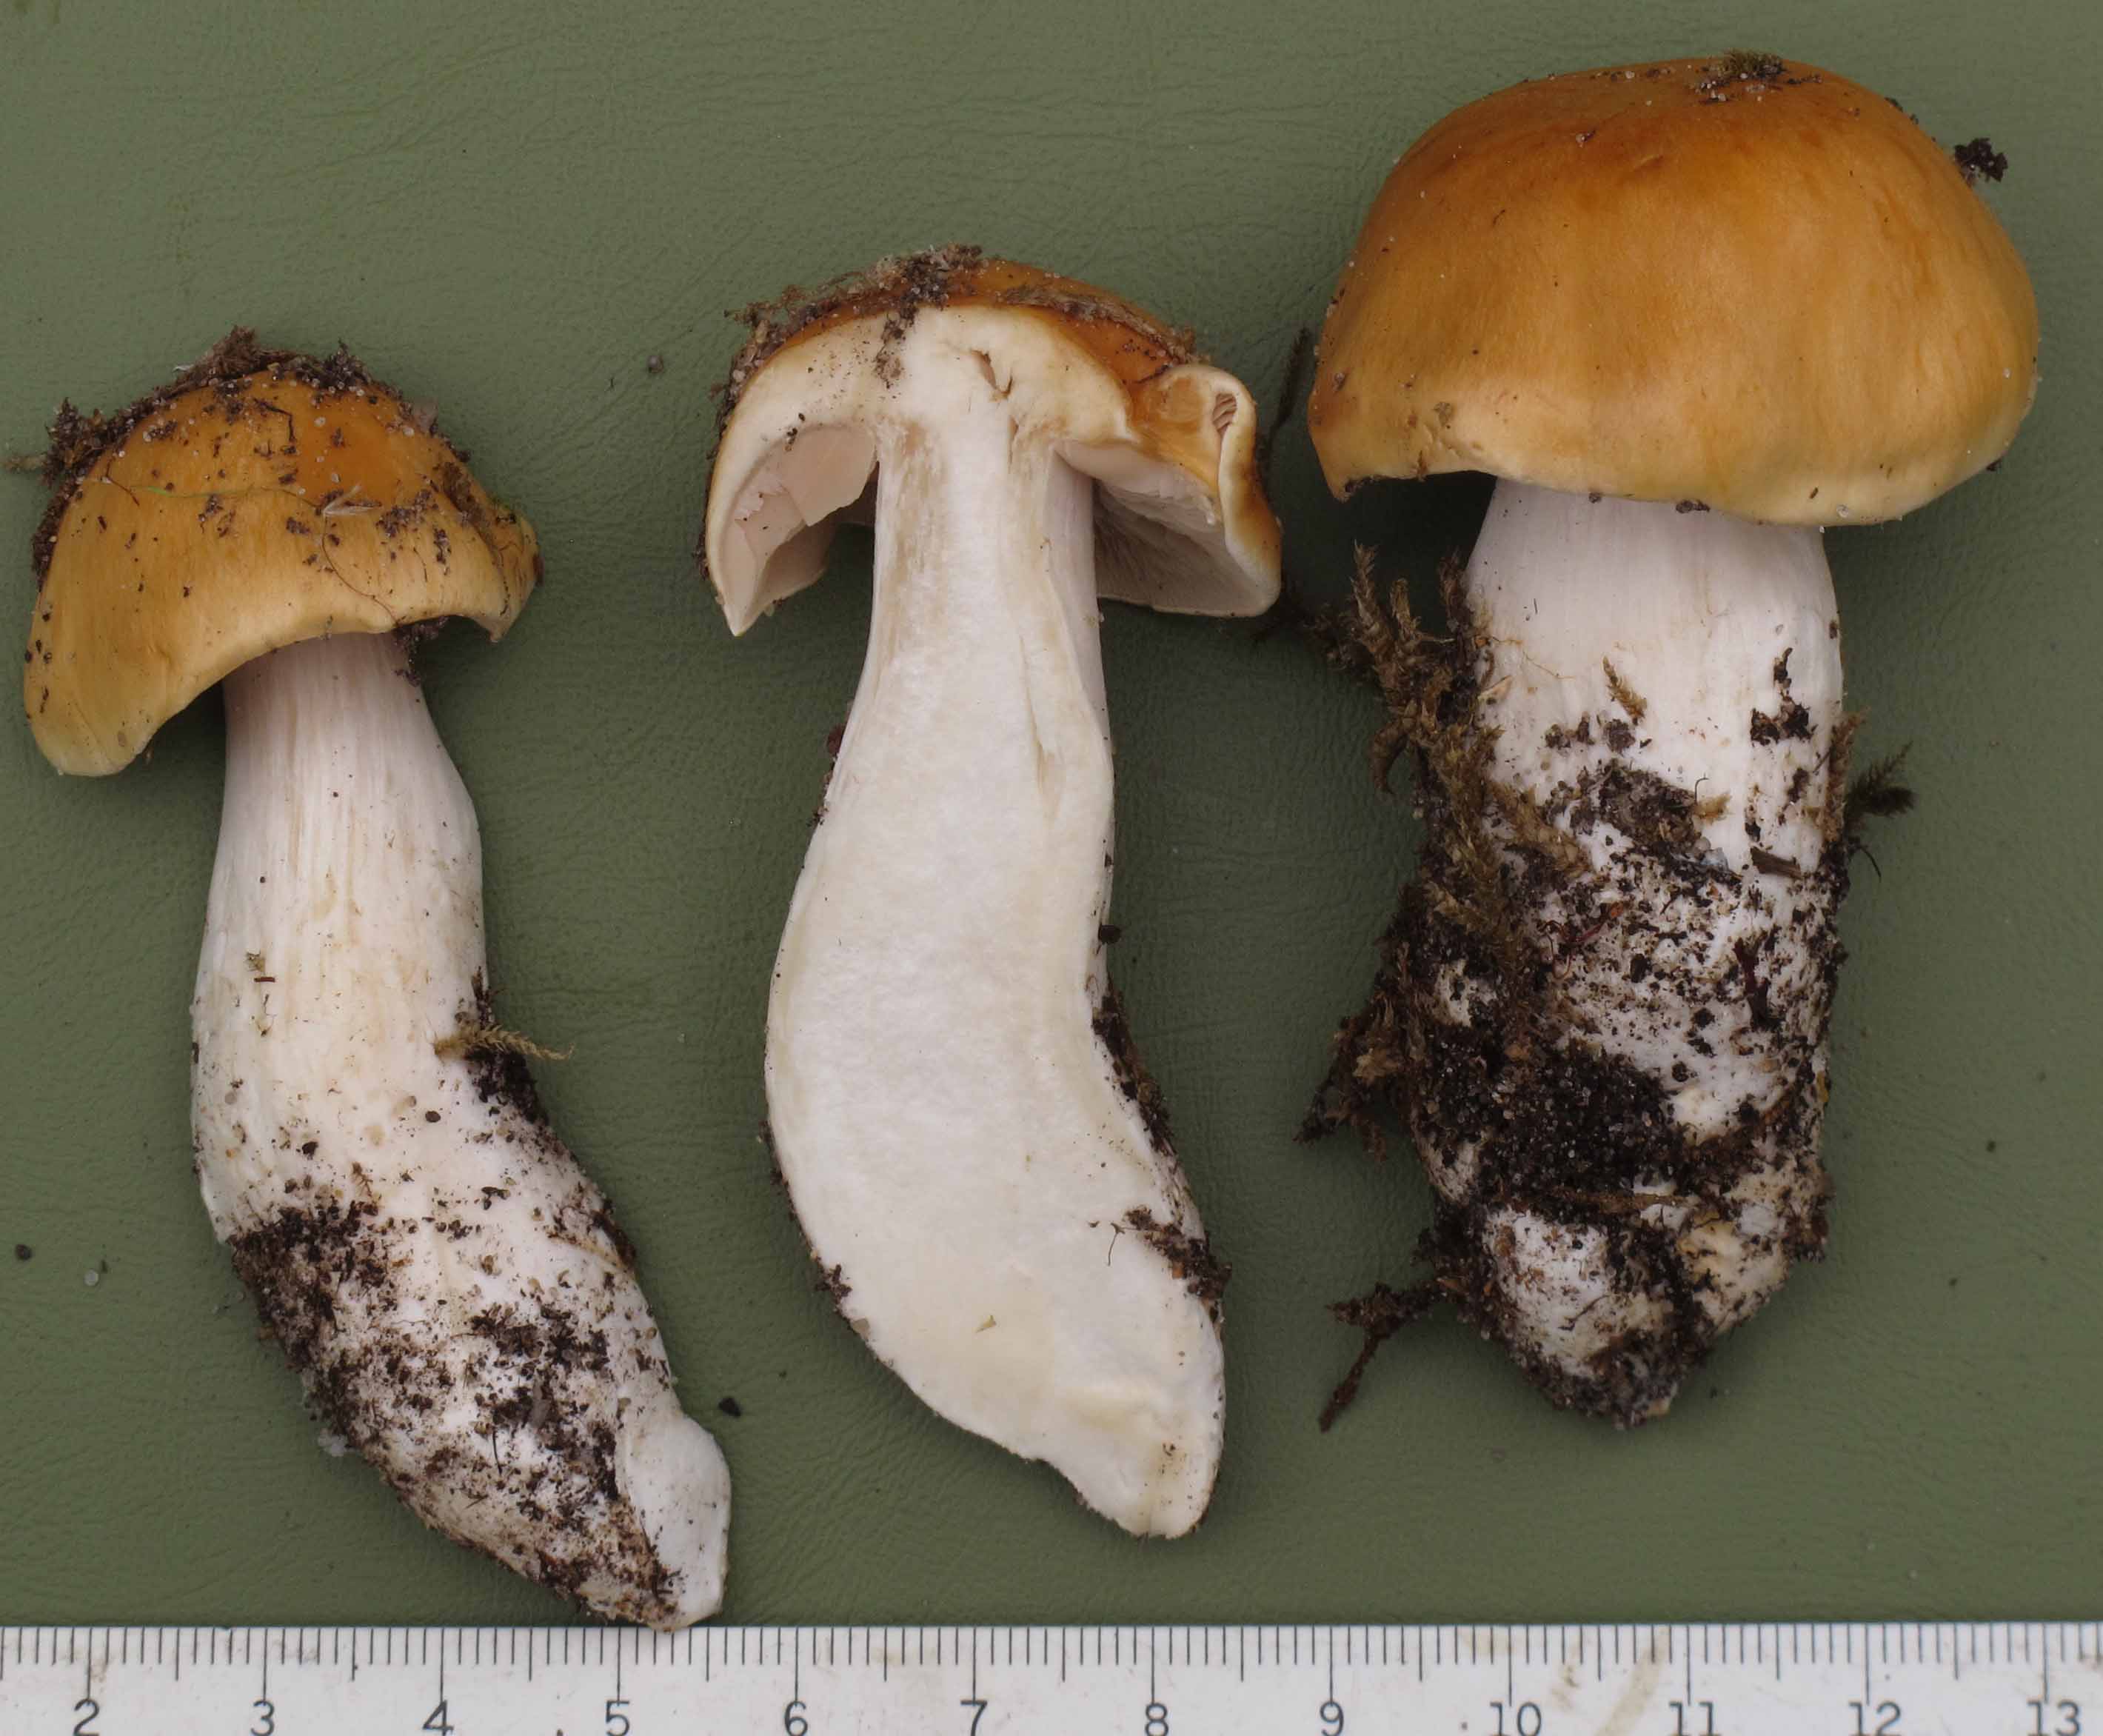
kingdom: Fungi
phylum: Basidiomycota
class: Agaricomycetes
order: Agaricales
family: Cortinariaceae
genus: Thaxterogaster
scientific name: Thaxterogaster emollitus
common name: besk slørhat
